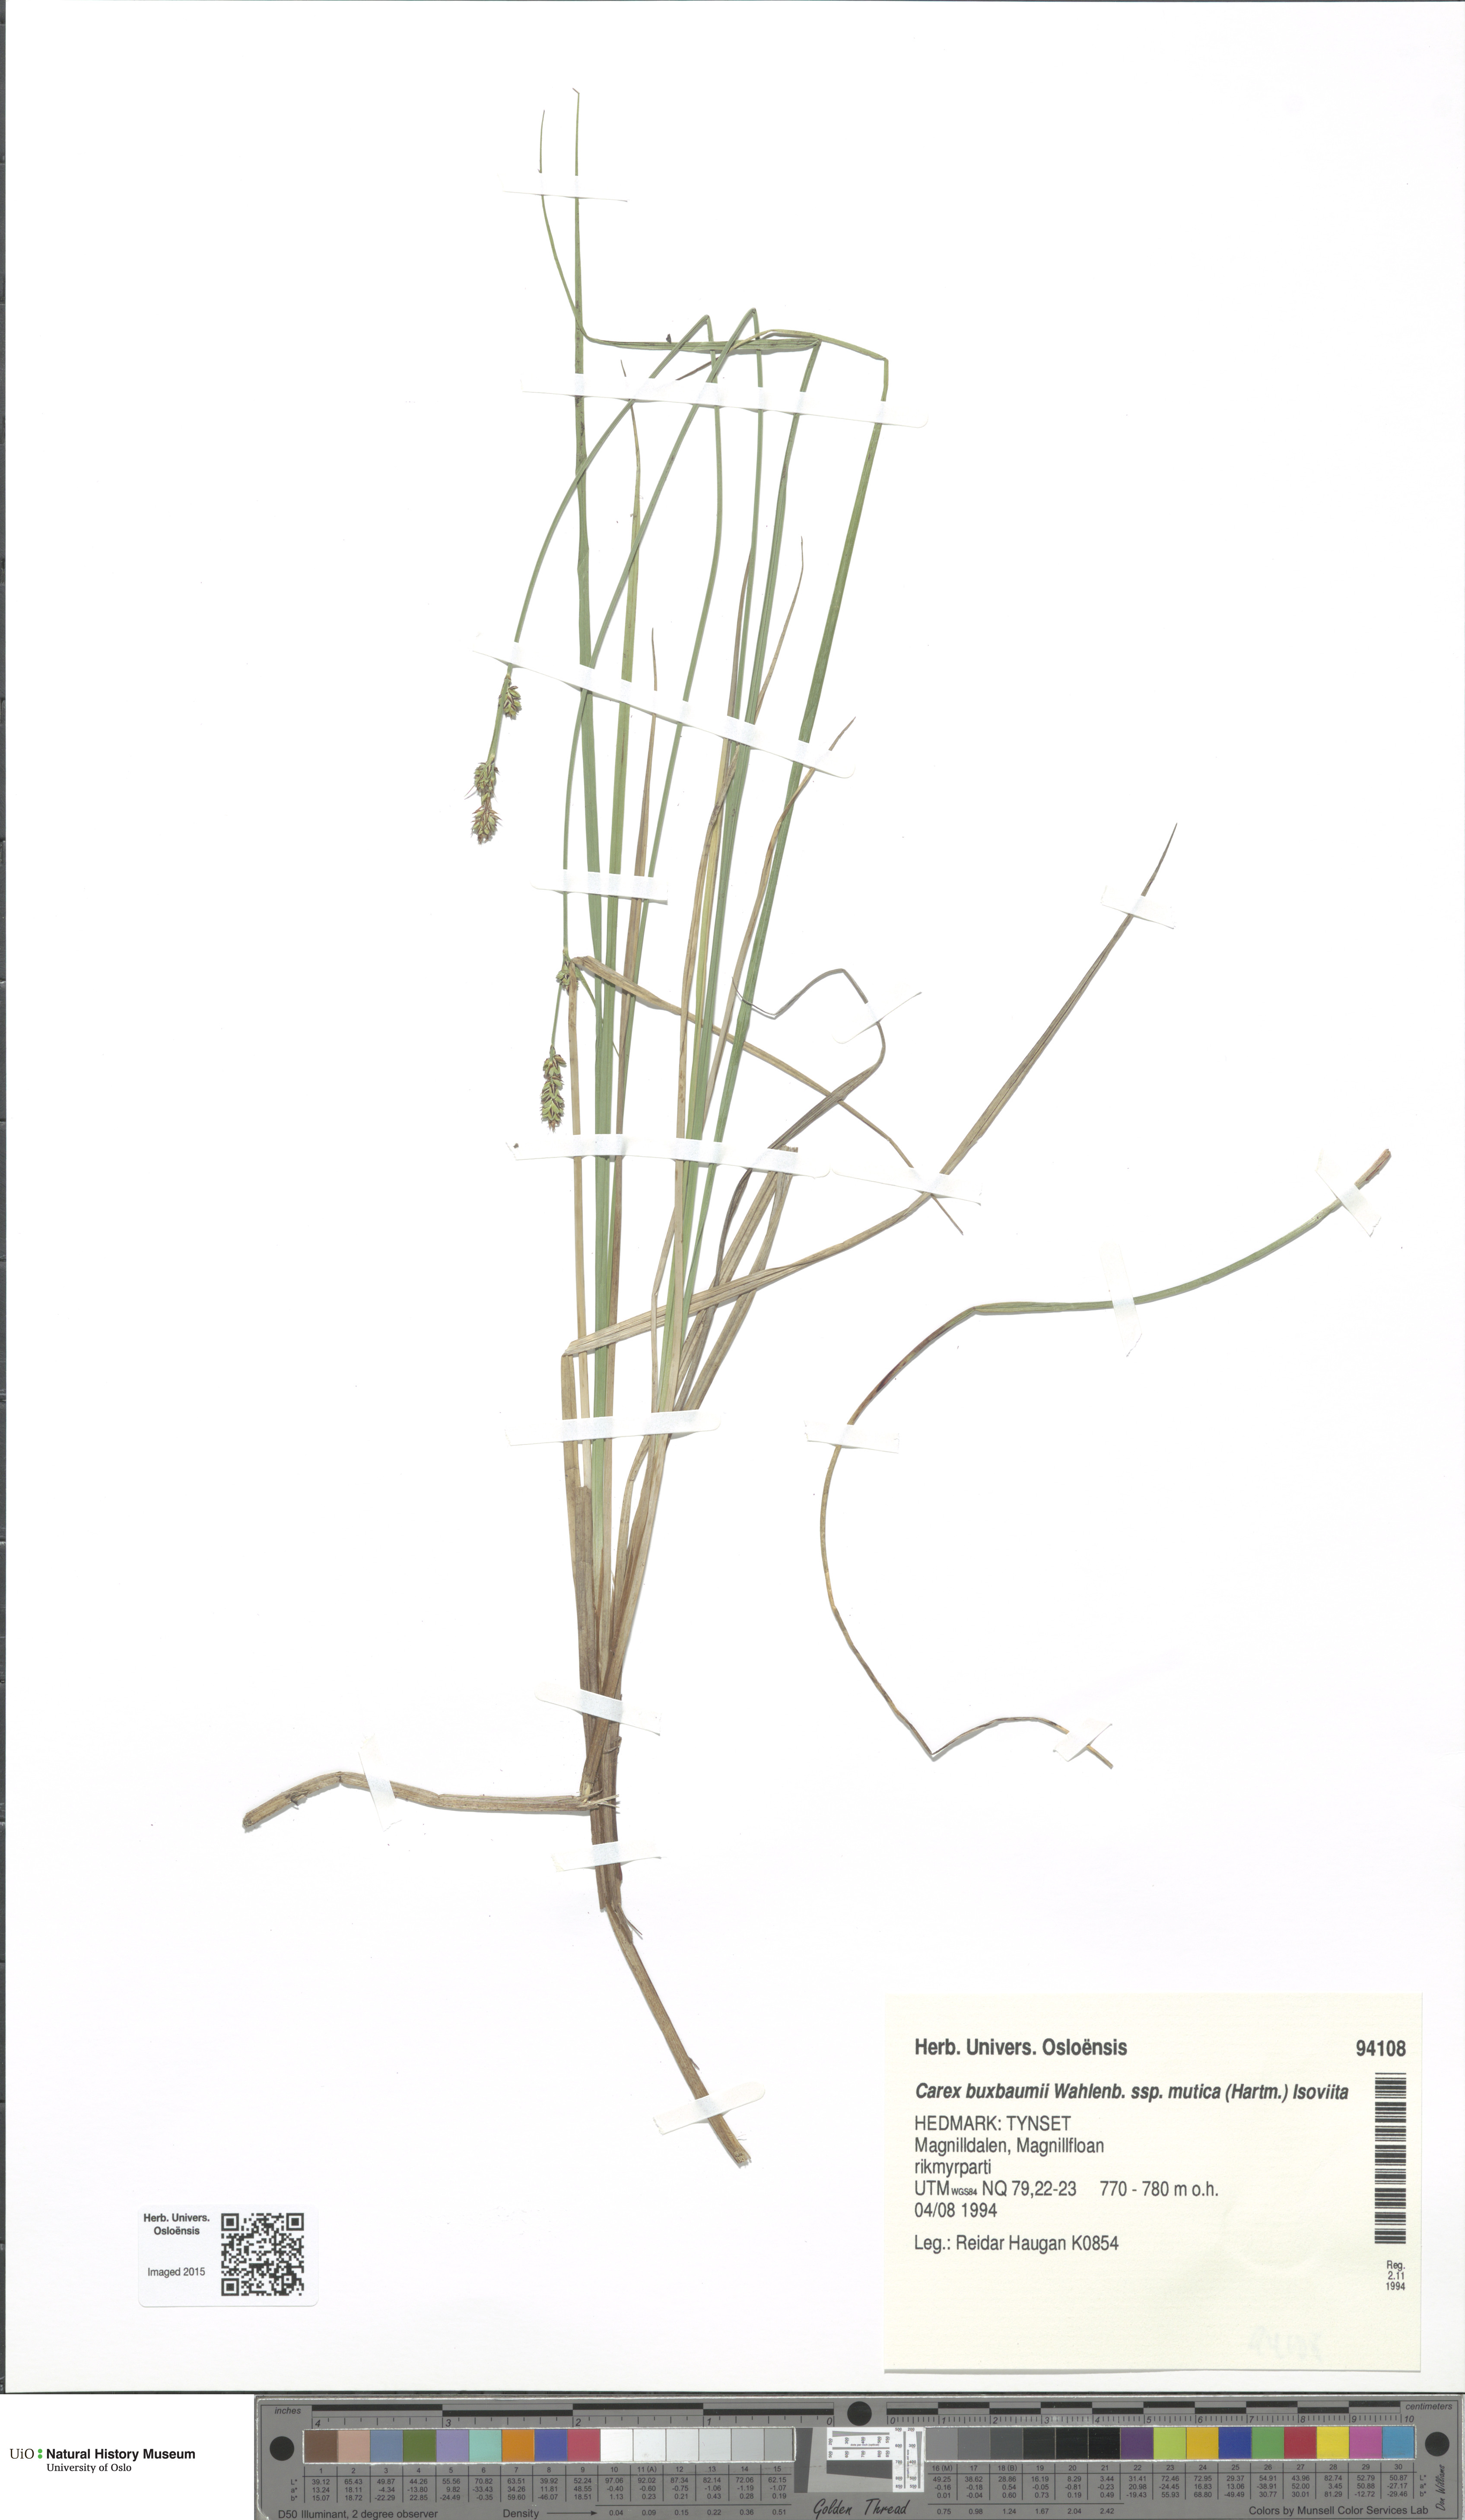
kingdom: Plantae
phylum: Tracheophyta
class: Liliopsida
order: Poales
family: Cyperaceae
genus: Carex
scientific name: Carex adelostoma
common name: Circumpolar sedge
